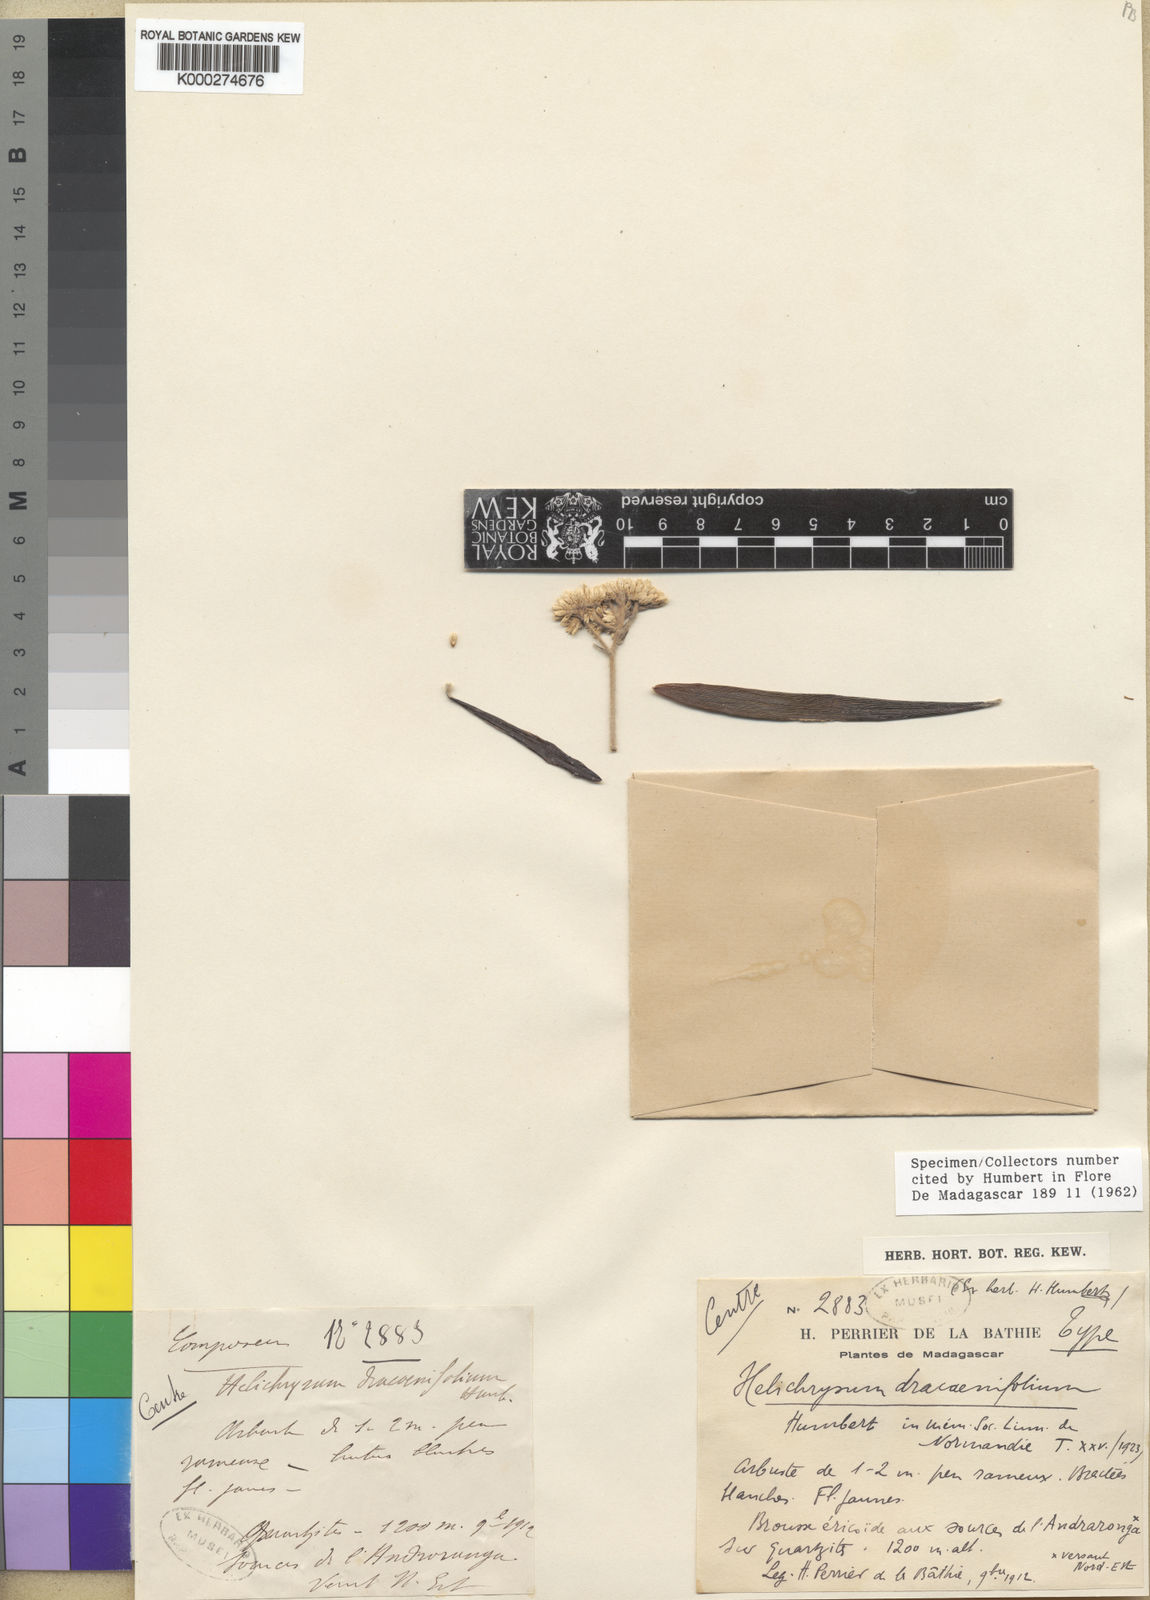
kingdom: Plantae
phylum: Tracheophyta
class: Magnoliopsida
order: Asterales
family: Asteraceae
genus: Helichrysum
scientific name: Helichrysum dracaenifolium
